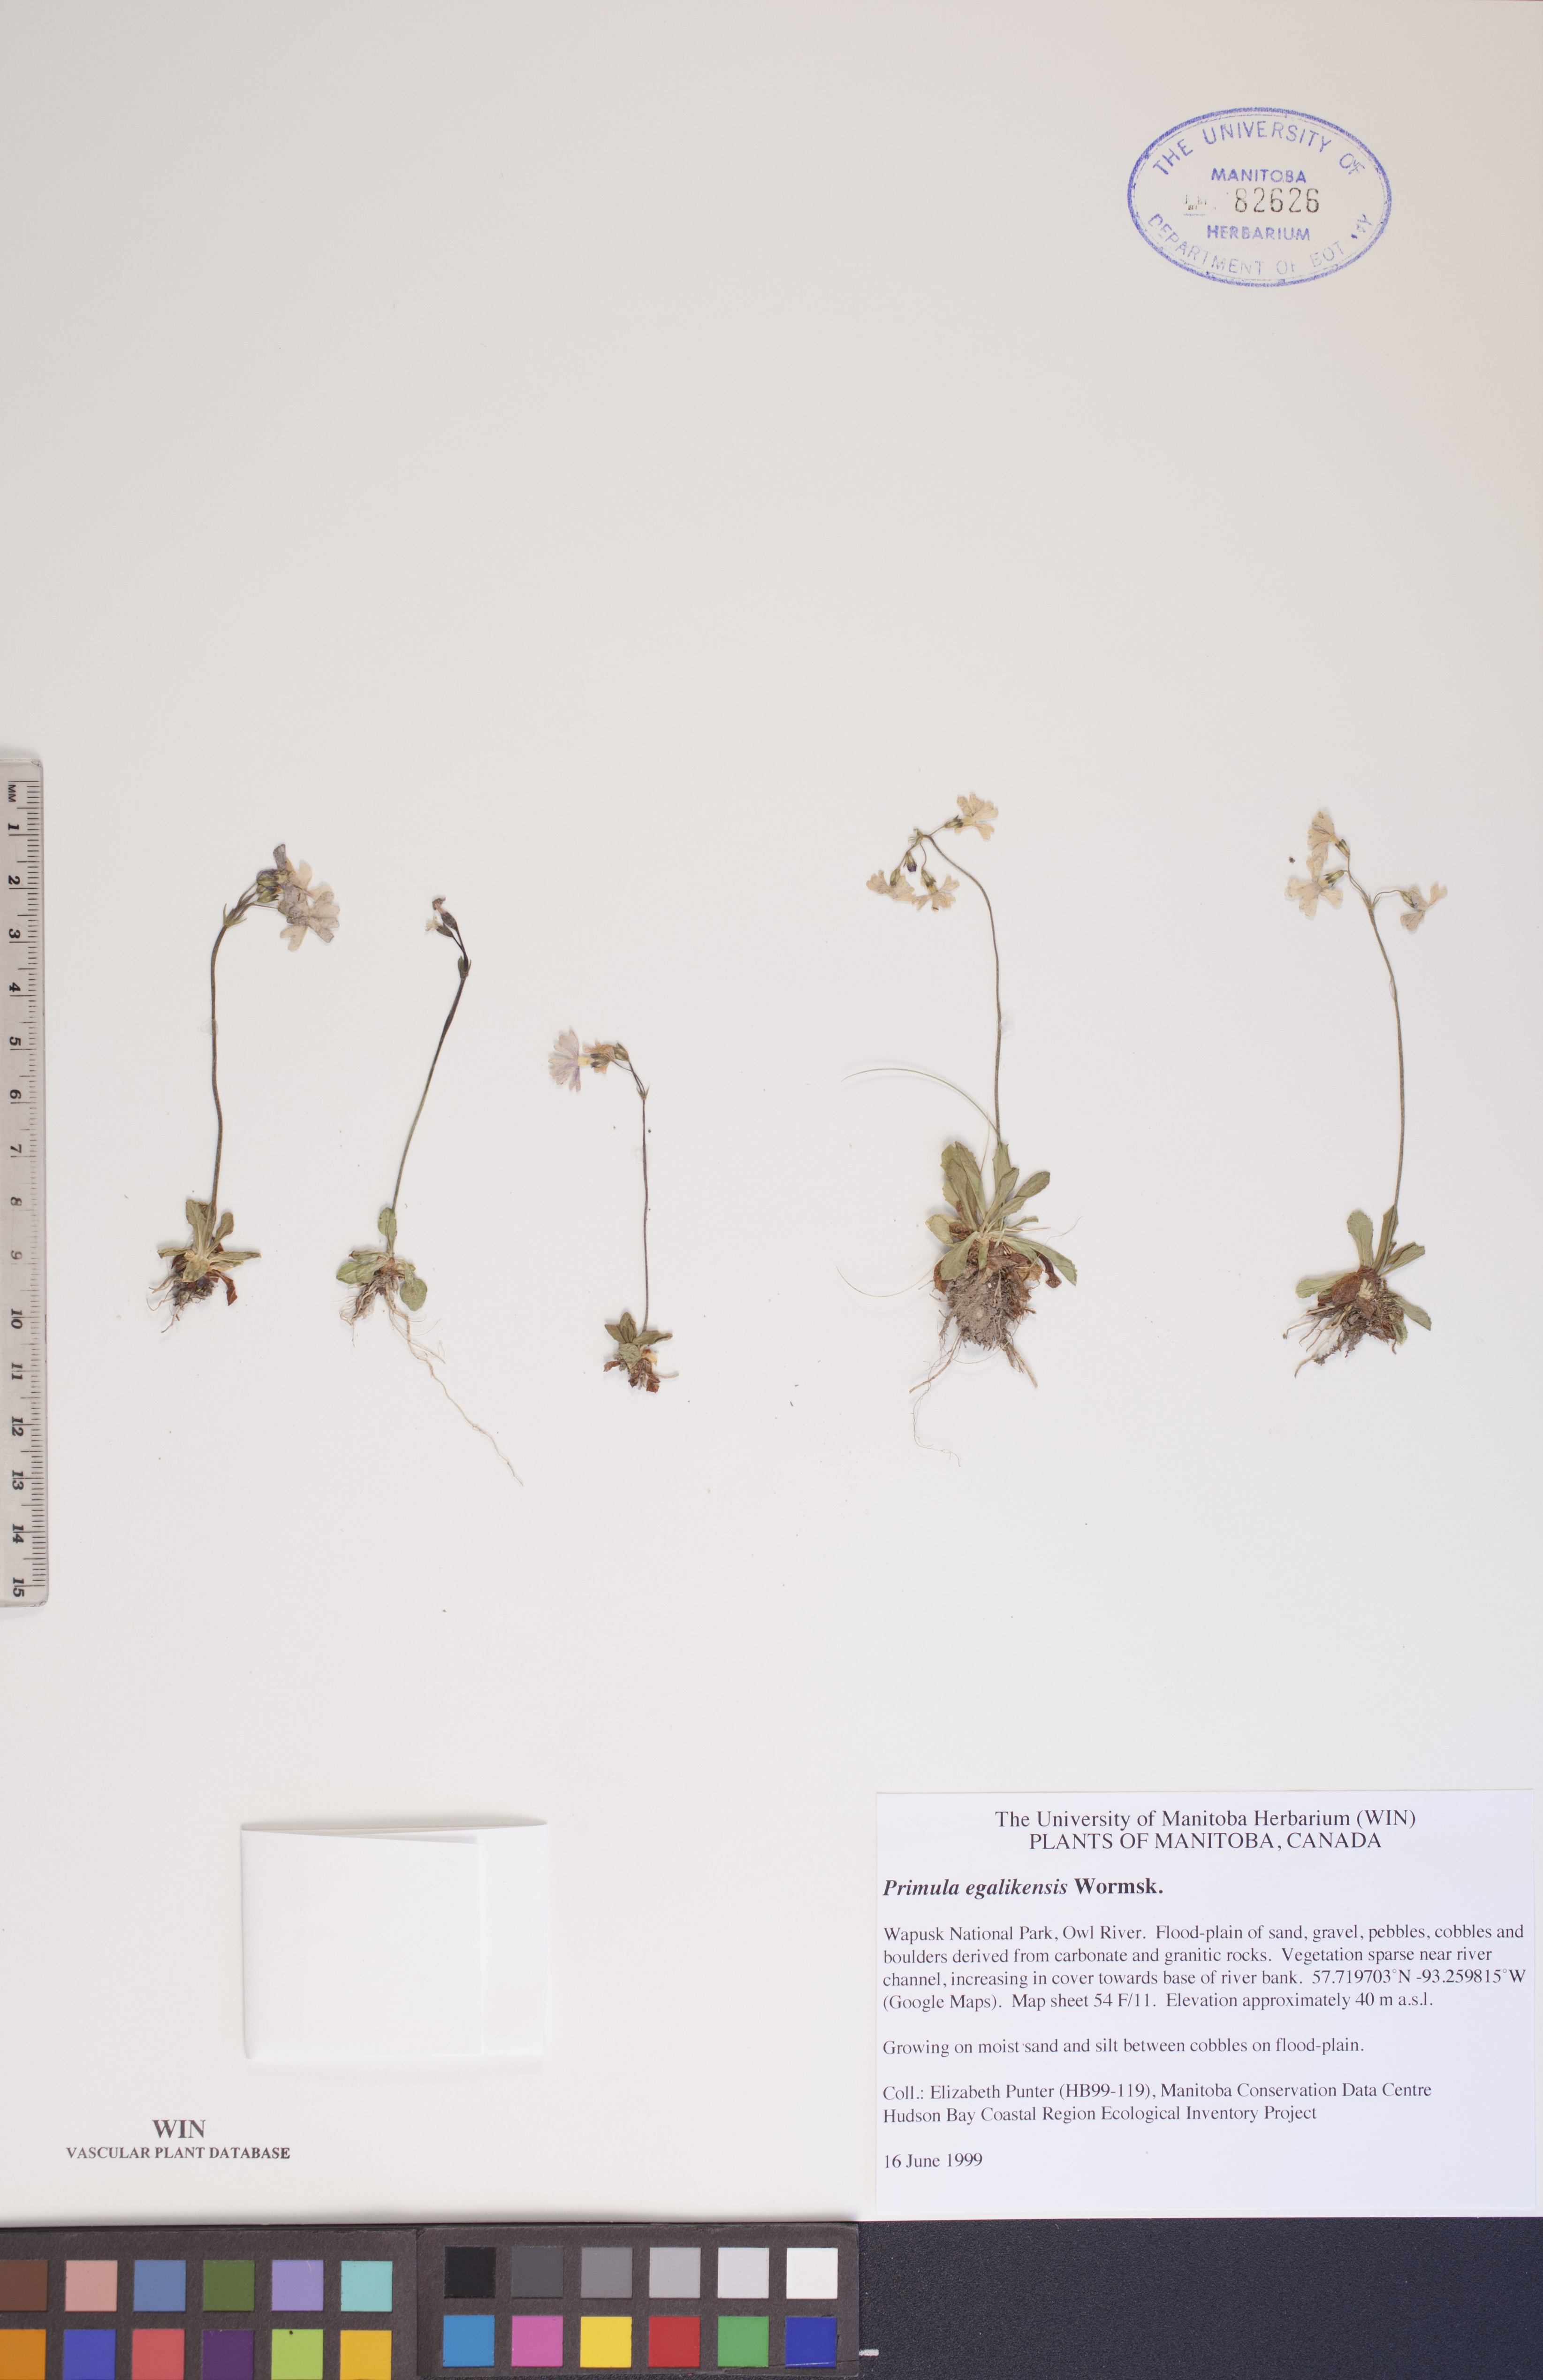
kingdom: Plantae
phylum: Tracheophyta
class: Magnoliopsida
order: Ericales
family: Primulaceae
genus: Primula
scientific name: Primula egaliksensis
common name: Greenland primrose
